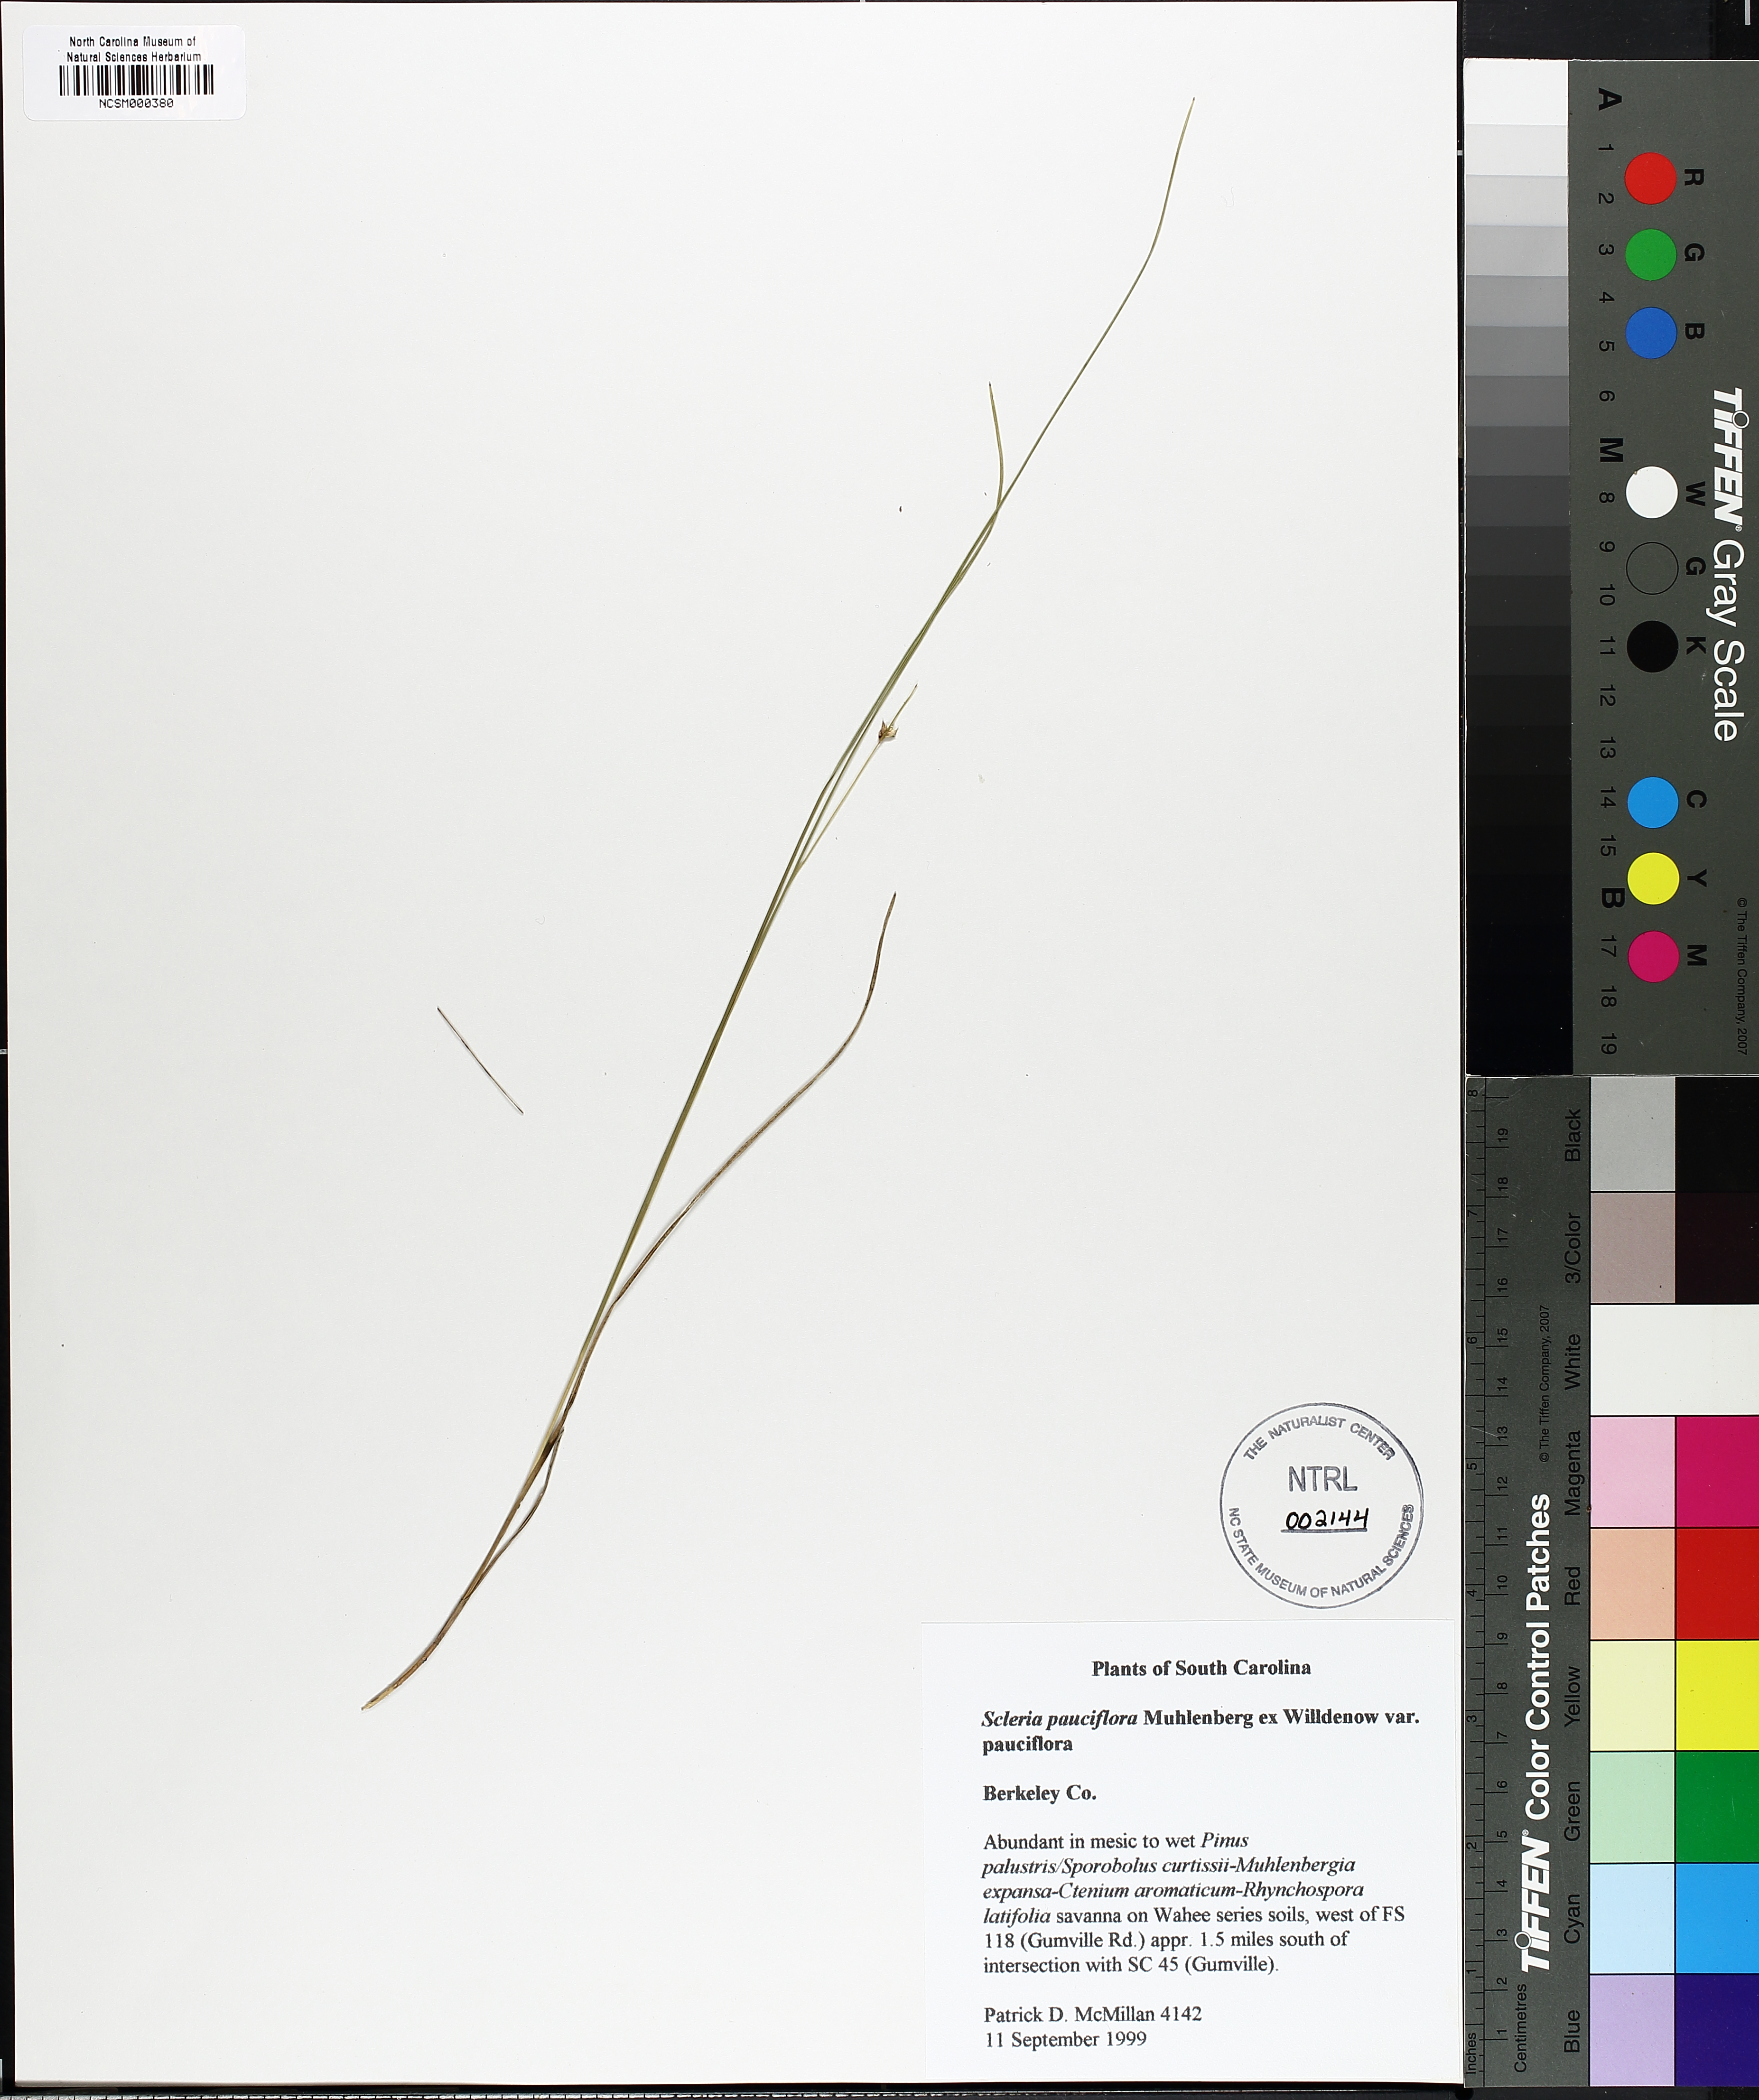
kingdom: Plantae
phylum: Tracheophyta
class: Liliopsida
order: Poales
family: Cyperaceae
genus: Scleria
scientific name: Scleria pauciflora
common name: Few-flowered nutrush
